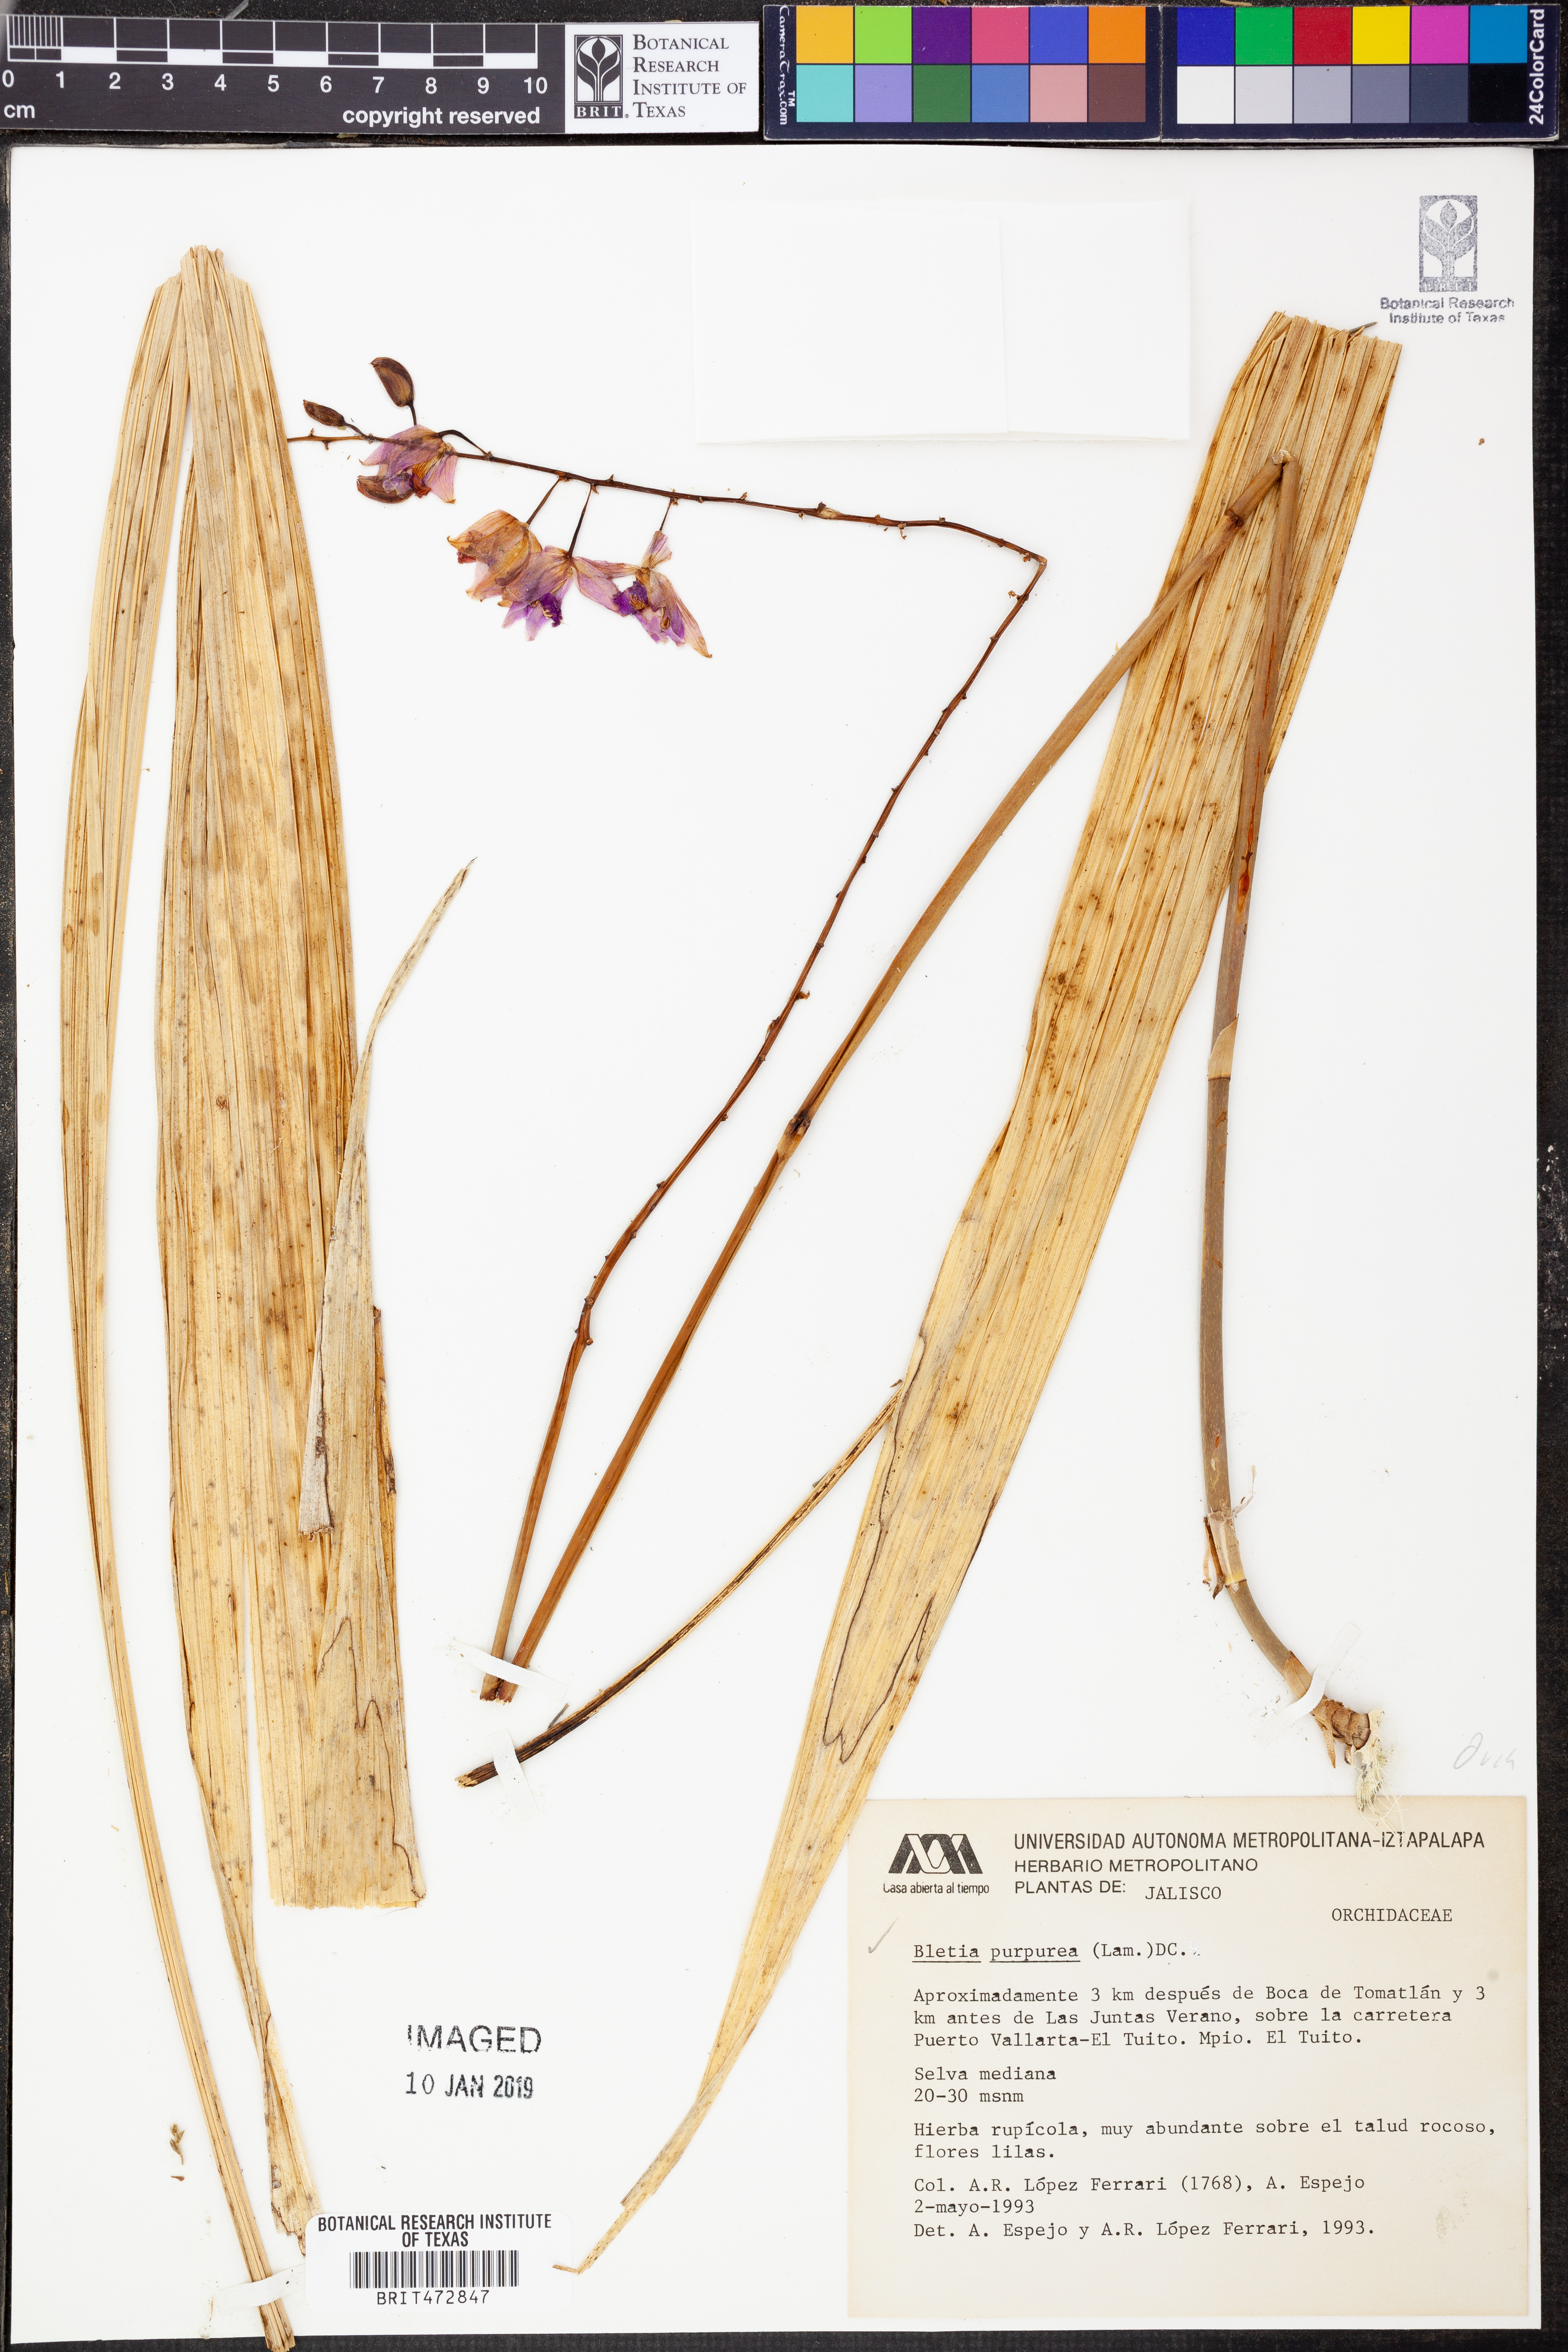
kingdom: Plantae
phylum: Tracheophyta
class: Liliopsida
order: Asparagales
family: Orchidaceae
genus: Bletia
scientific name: Bletia purpurea
